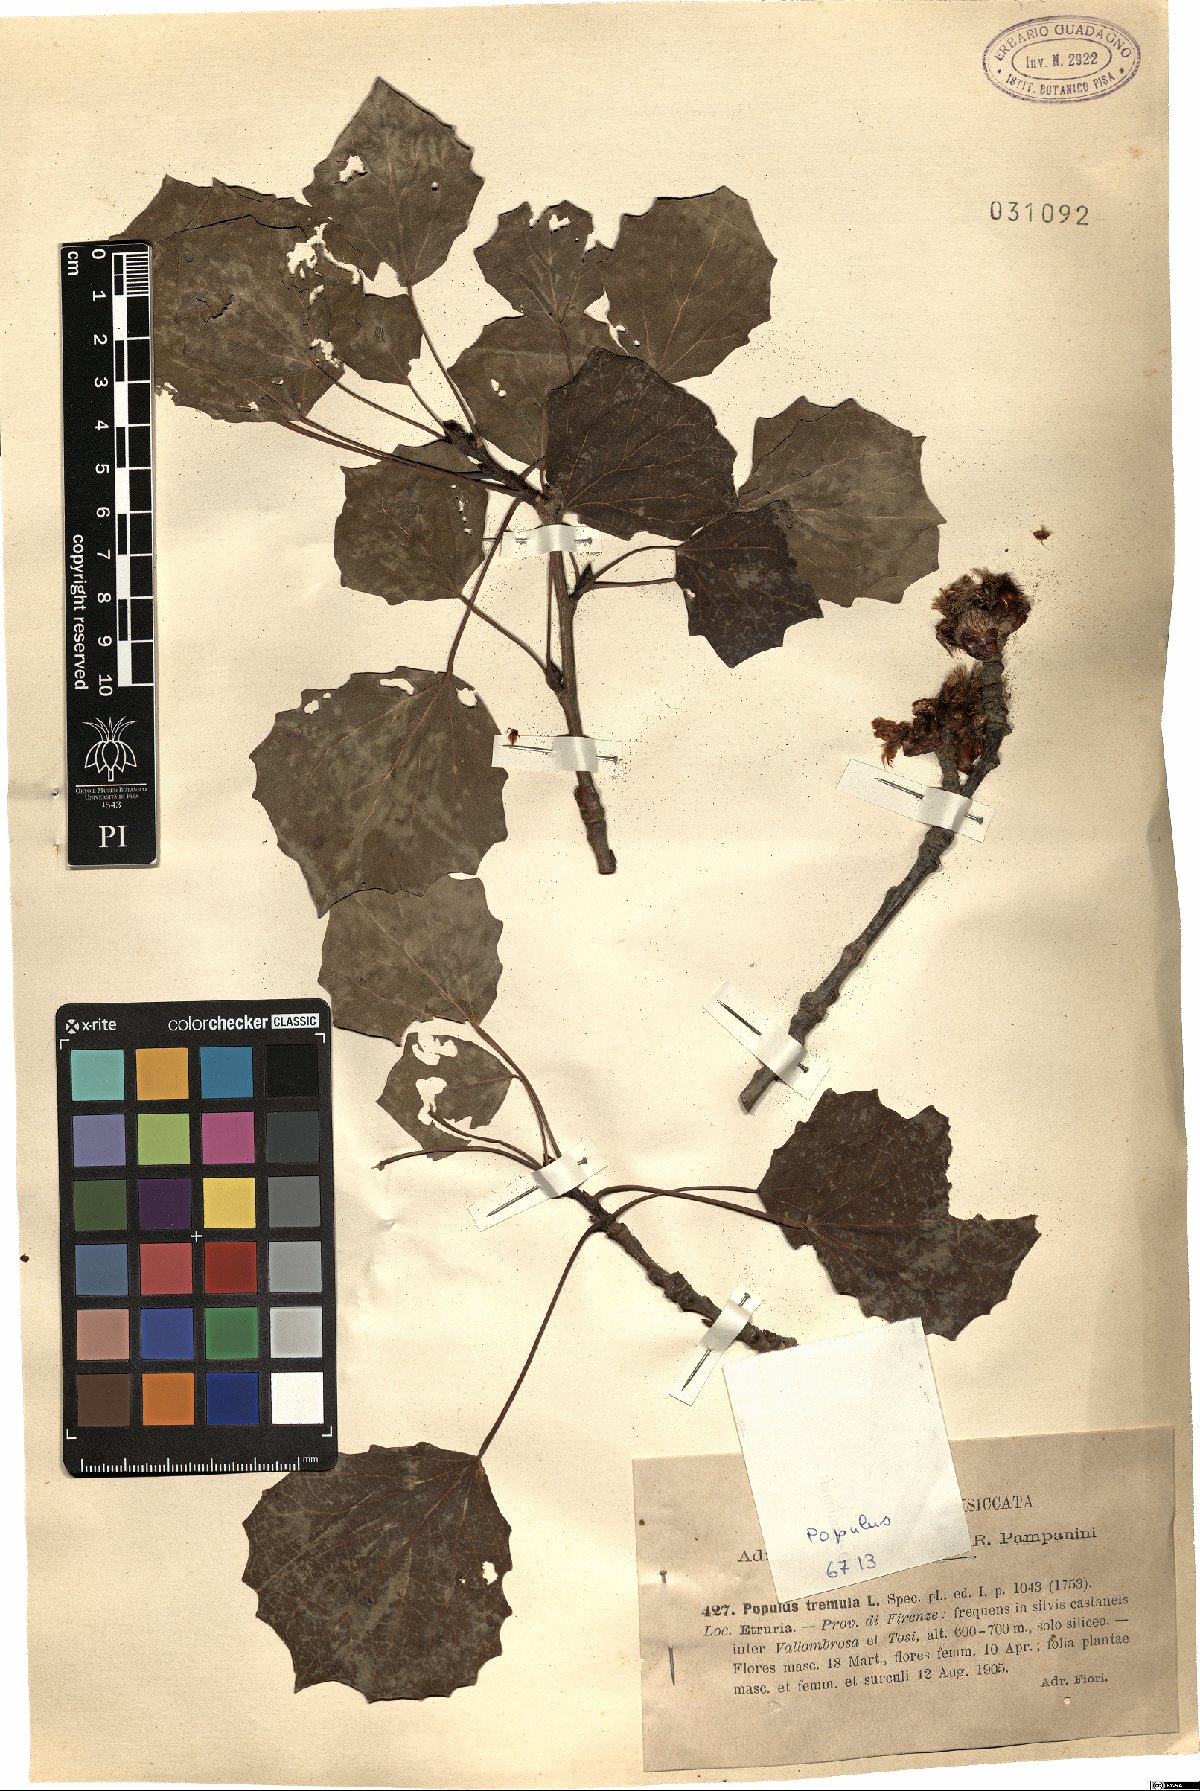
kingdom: Plantae
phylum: Tracheophyta
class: Magnoliopsida
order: Malpighiales
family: Salicaceae
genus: Populus
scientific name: Populus tremula
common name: European aspen
